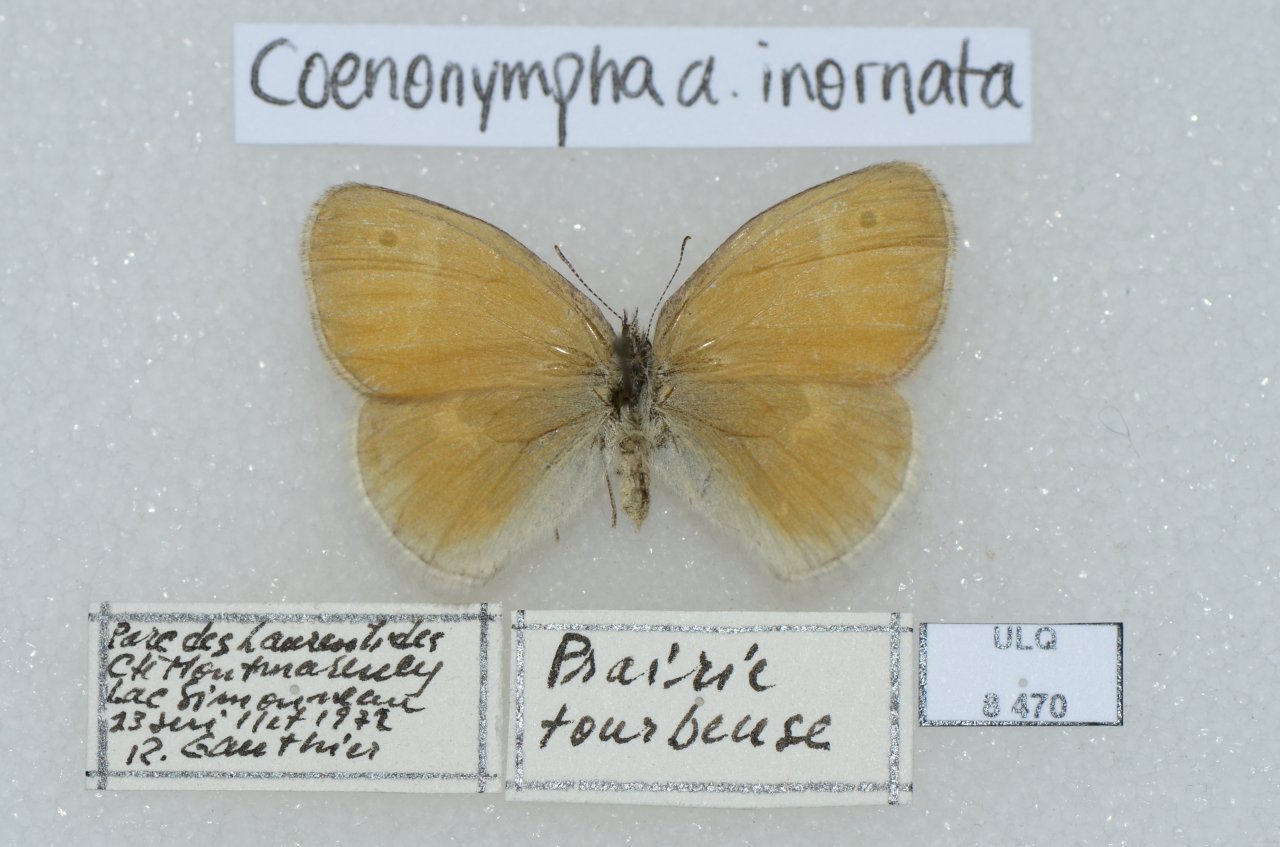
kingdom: Animalia
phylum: Arthropoda
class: Insecta
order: Lepidoptera
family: Nymphalidae
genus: Coenonympha
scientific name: Coenonympha tullia
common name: Large Heath
